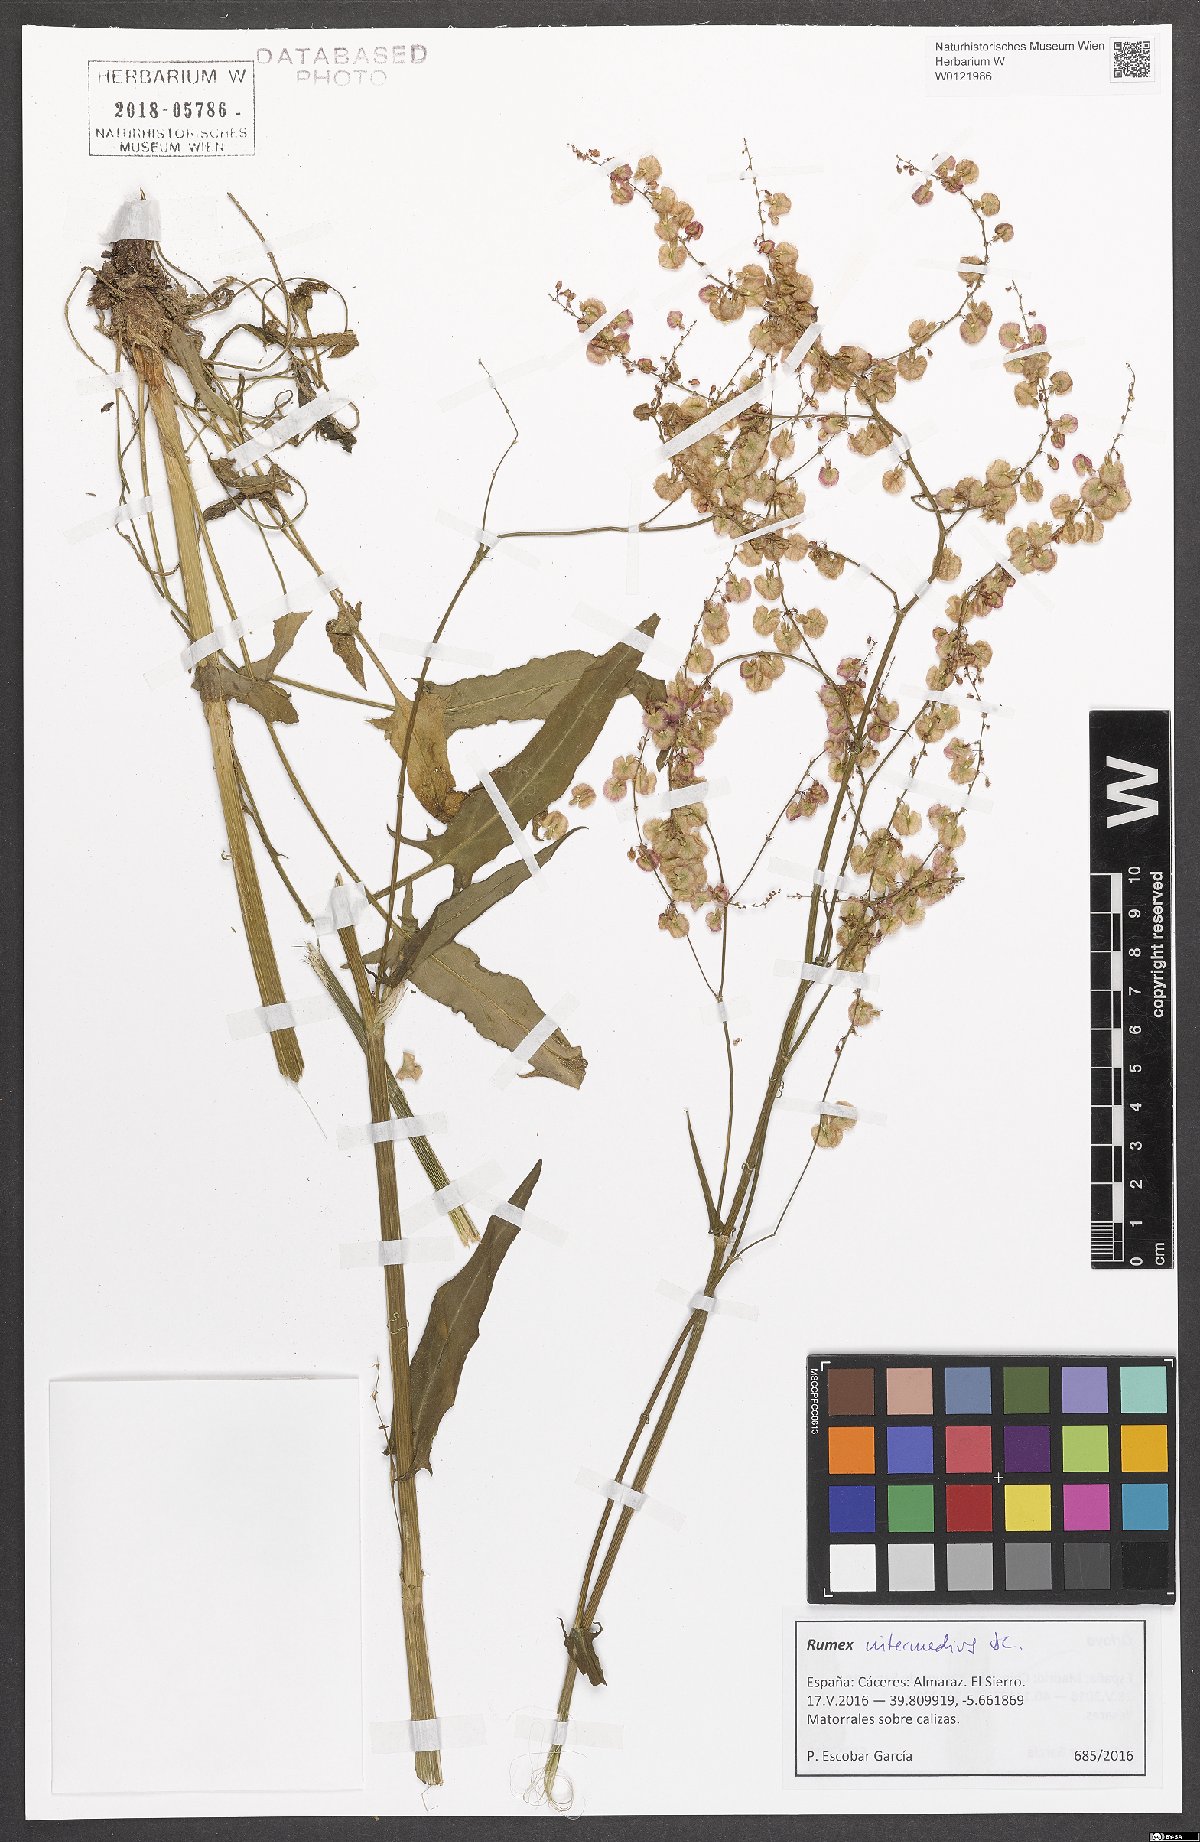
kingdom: Plantae
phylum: Tracheophyta
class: Magnoliopsida
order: Caryophyllales
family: Polygonaceae
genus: Rumex
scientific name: Rumex intermedius
